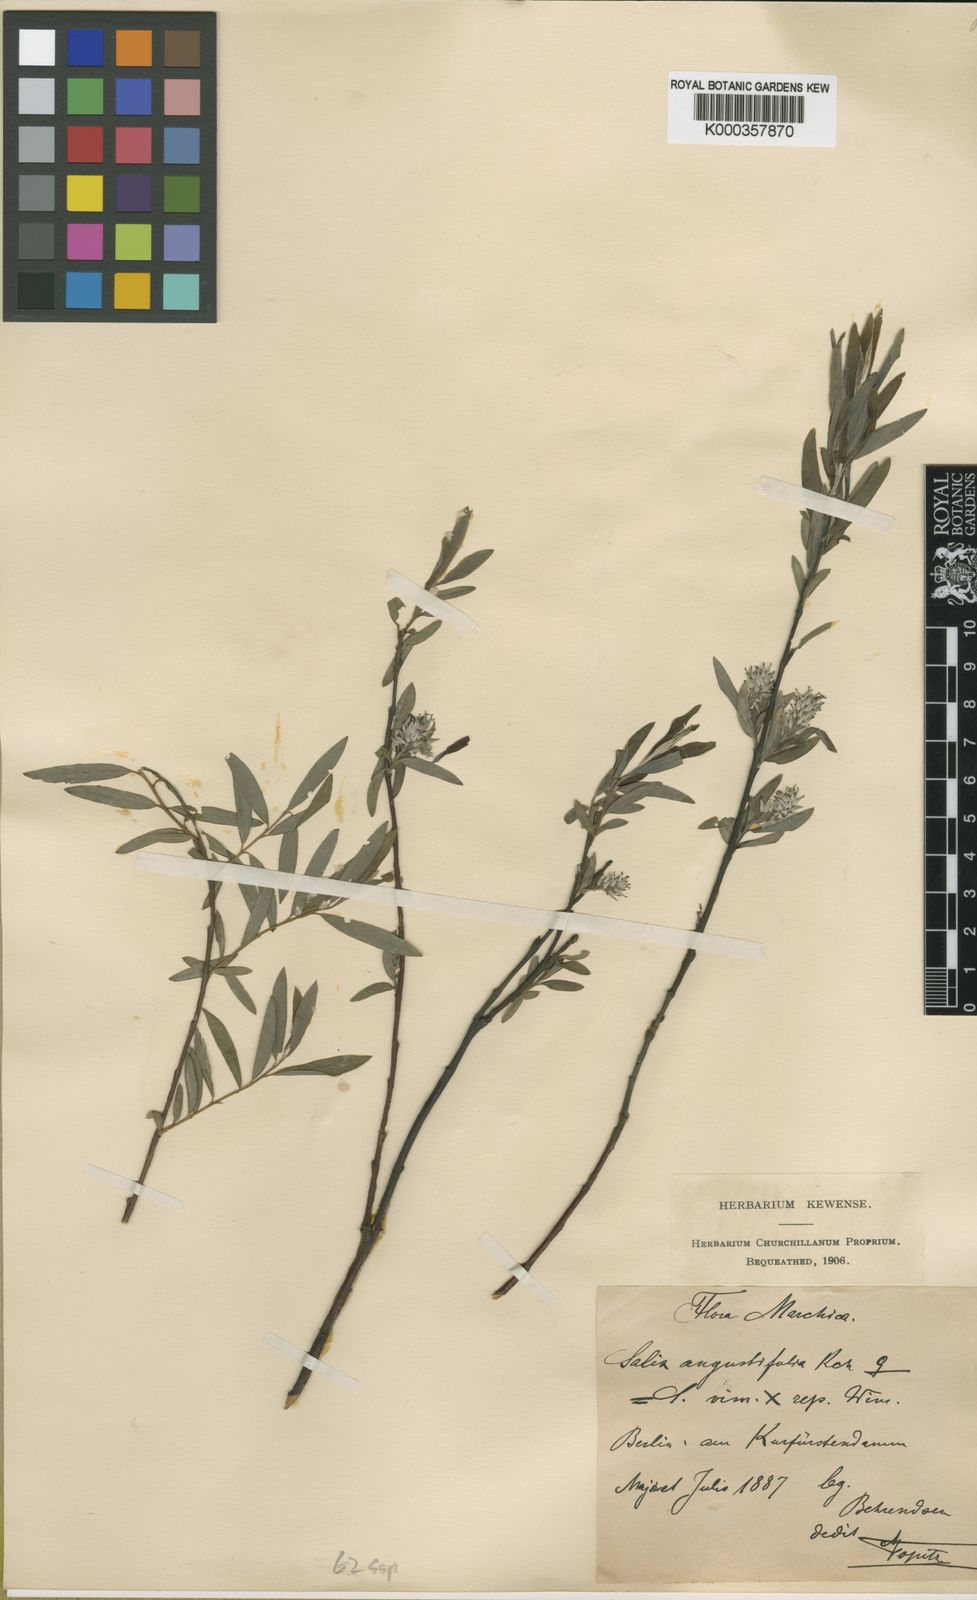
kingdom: Plantae
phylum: Tracheophyta
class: Magnoliopsida
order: Malpighiales
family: Salicaceae
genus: Salix
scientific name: Salix
